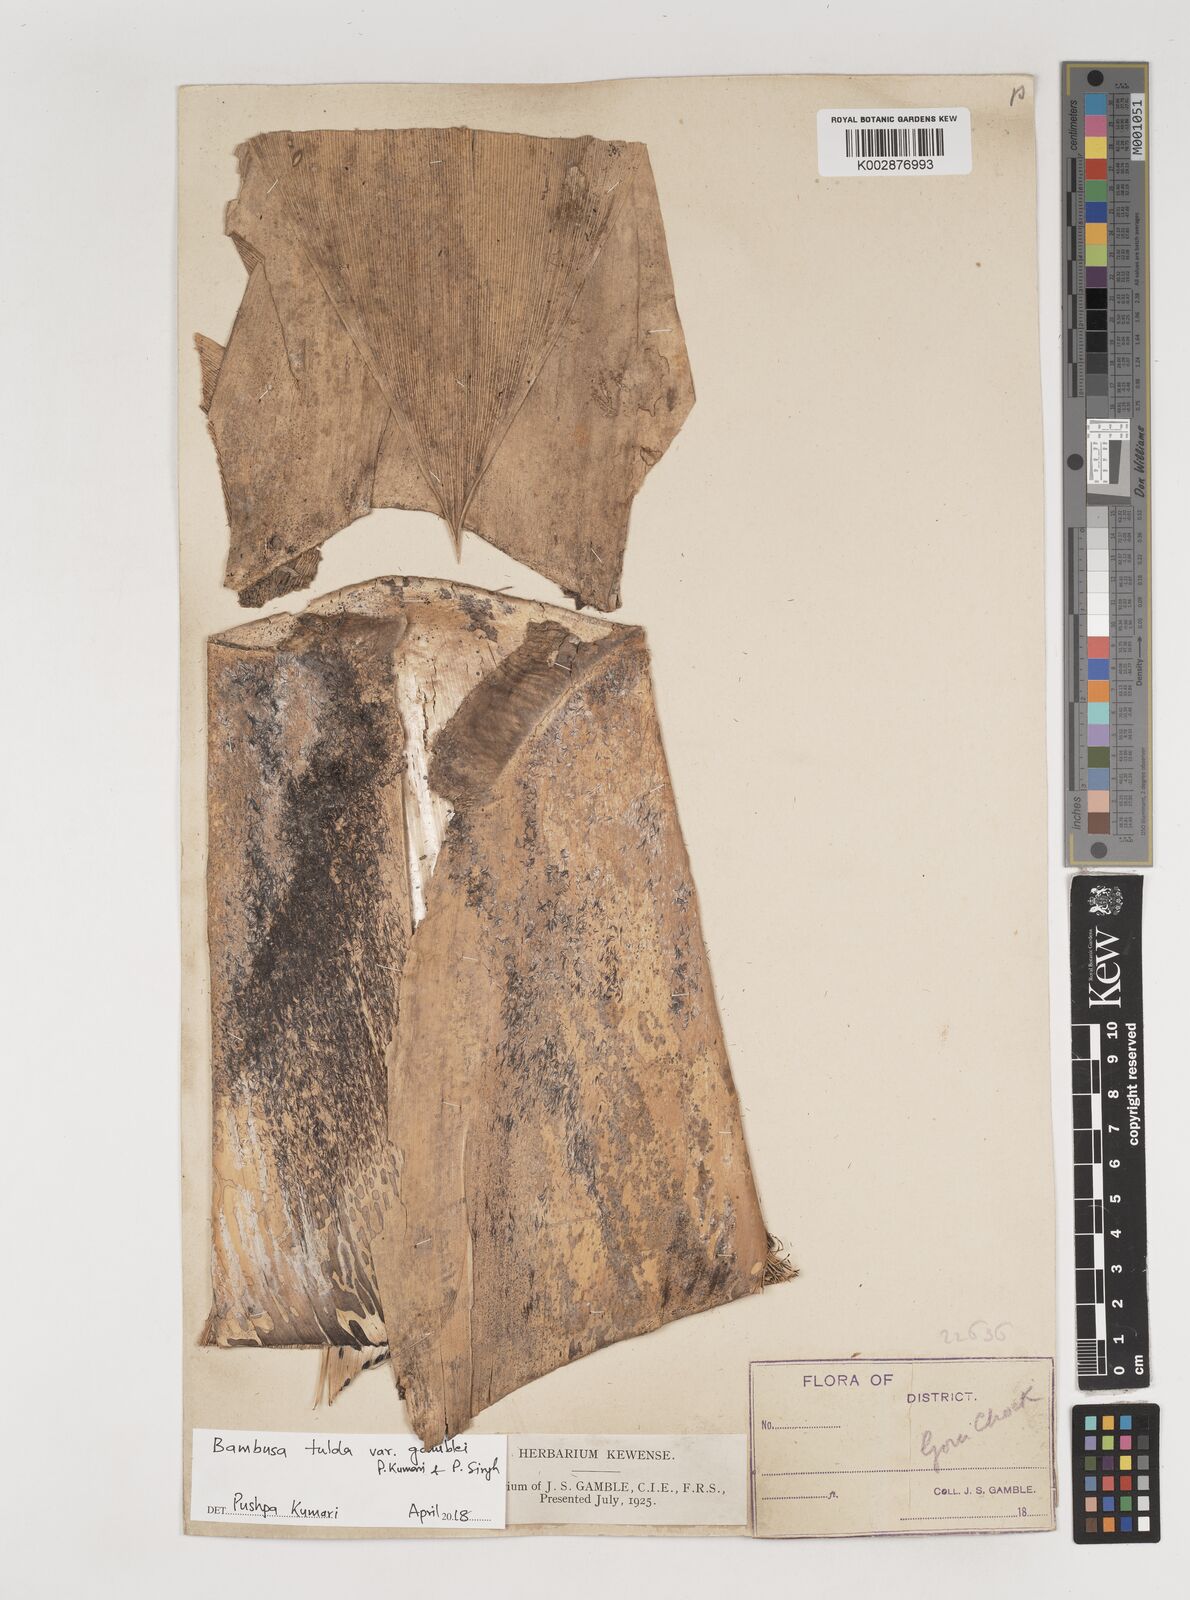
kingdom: Plantae
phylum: Tracheophyta
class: Liliopsida
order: Poales
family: Poaceae
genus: Bambusa
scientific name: Bambusa tulda
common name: Bengal bamboo
